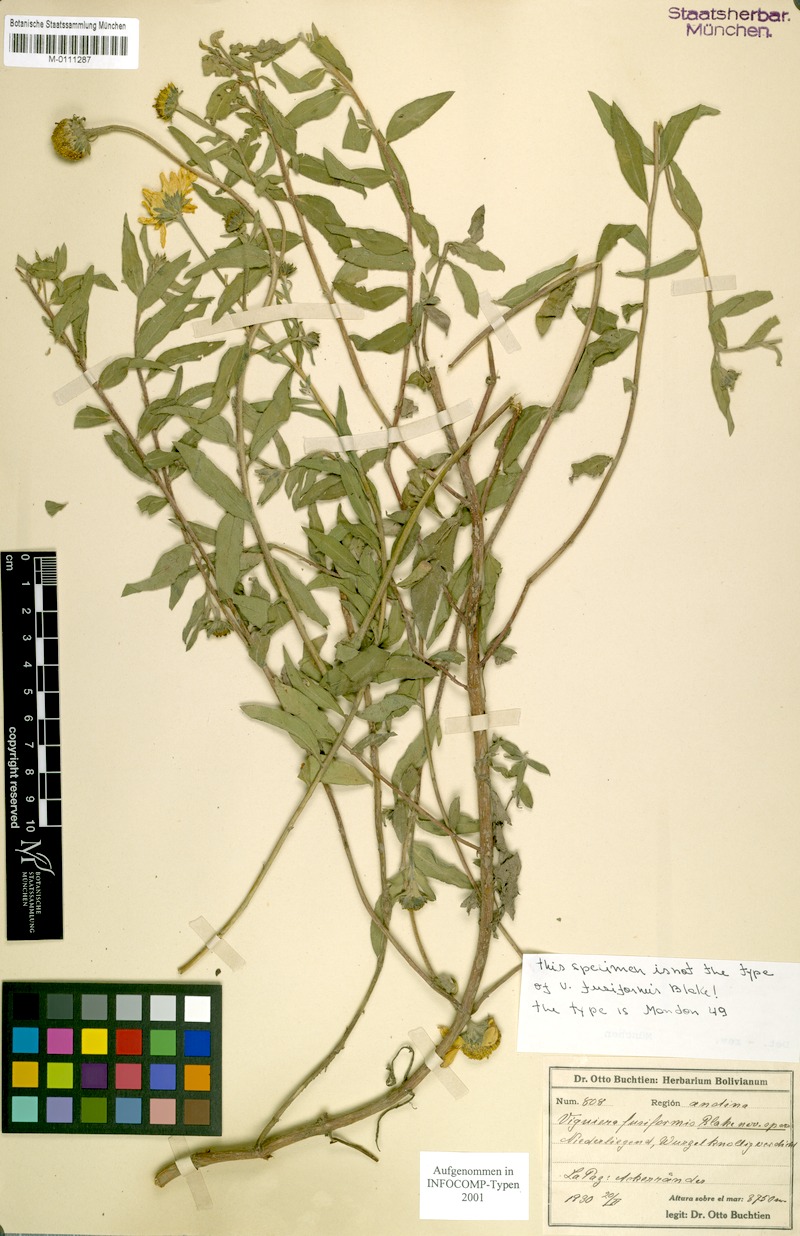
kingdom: Plantae
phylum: Tracheophyta
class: Magnoliopsida
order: Asterales
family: Asteraceae
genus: Aldama
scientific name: Aldama fusiformis
